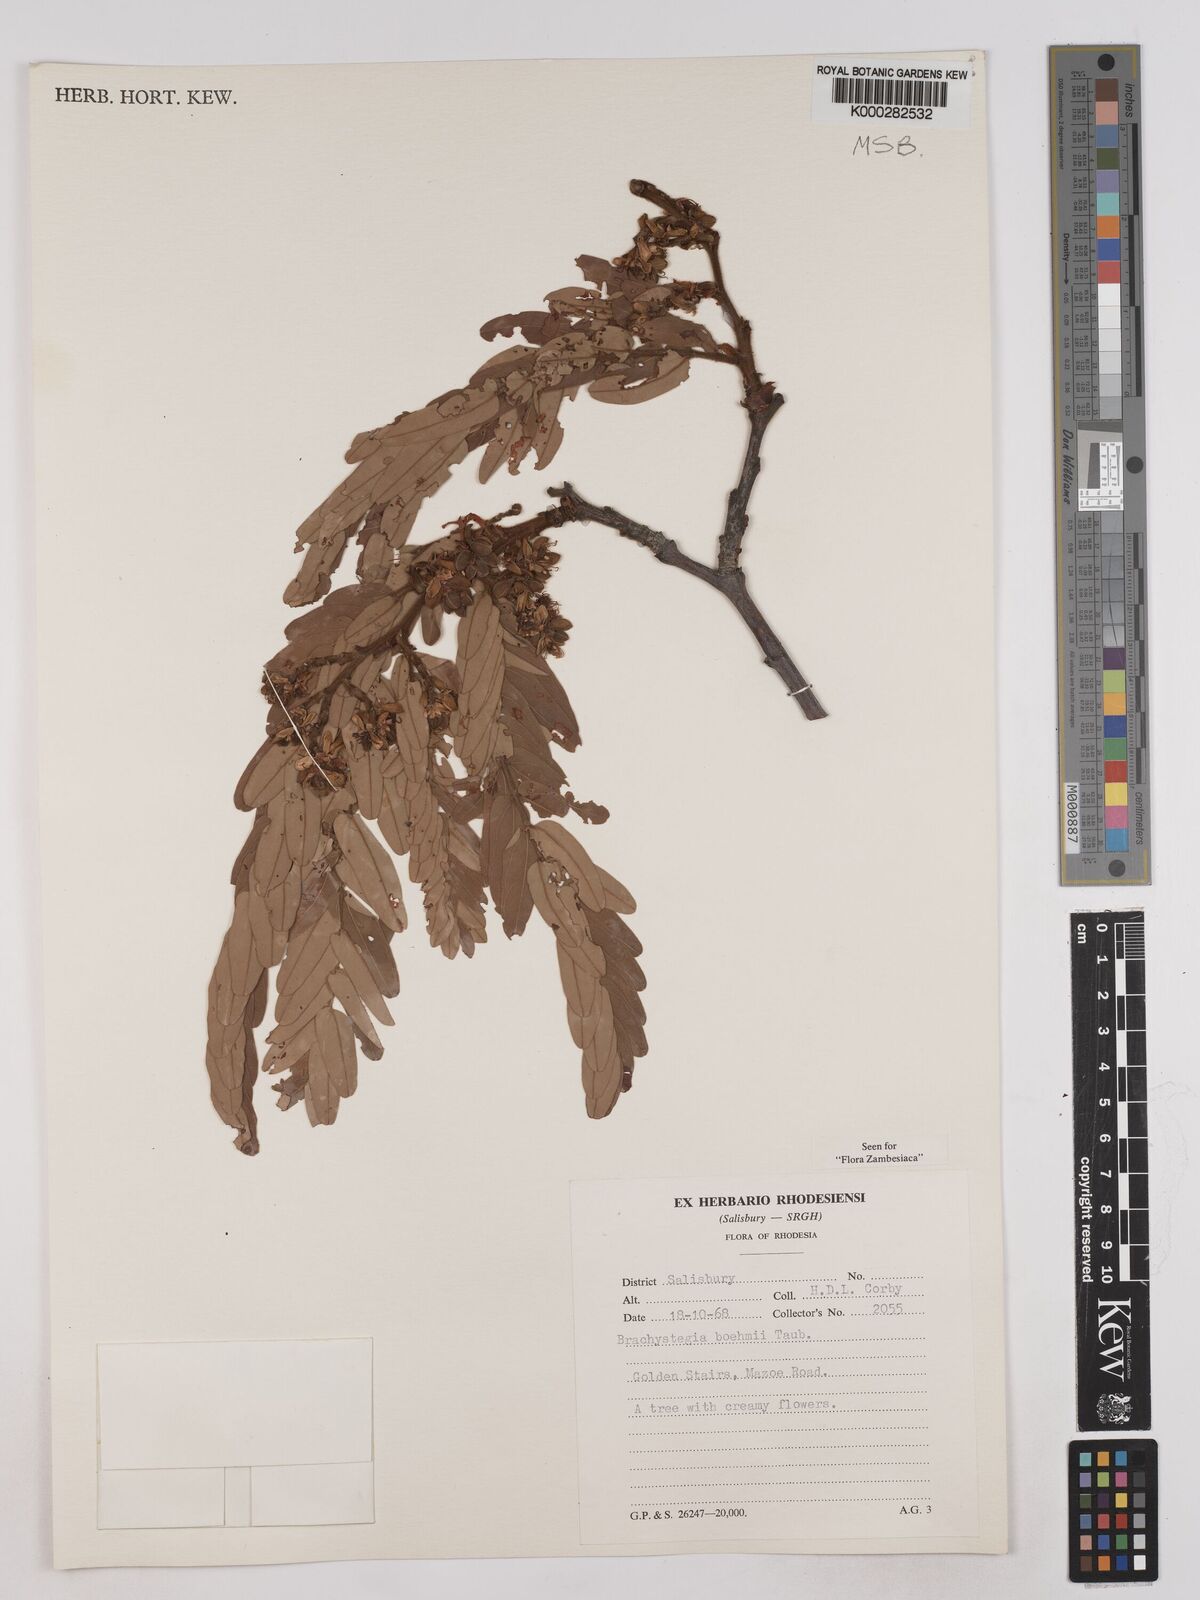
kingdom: Plantae
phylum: Tracheophyta
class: Magnoliopsida
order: Fabales
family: Fabaceae
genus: Brachystegia
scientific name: Brachystegia boehmii
